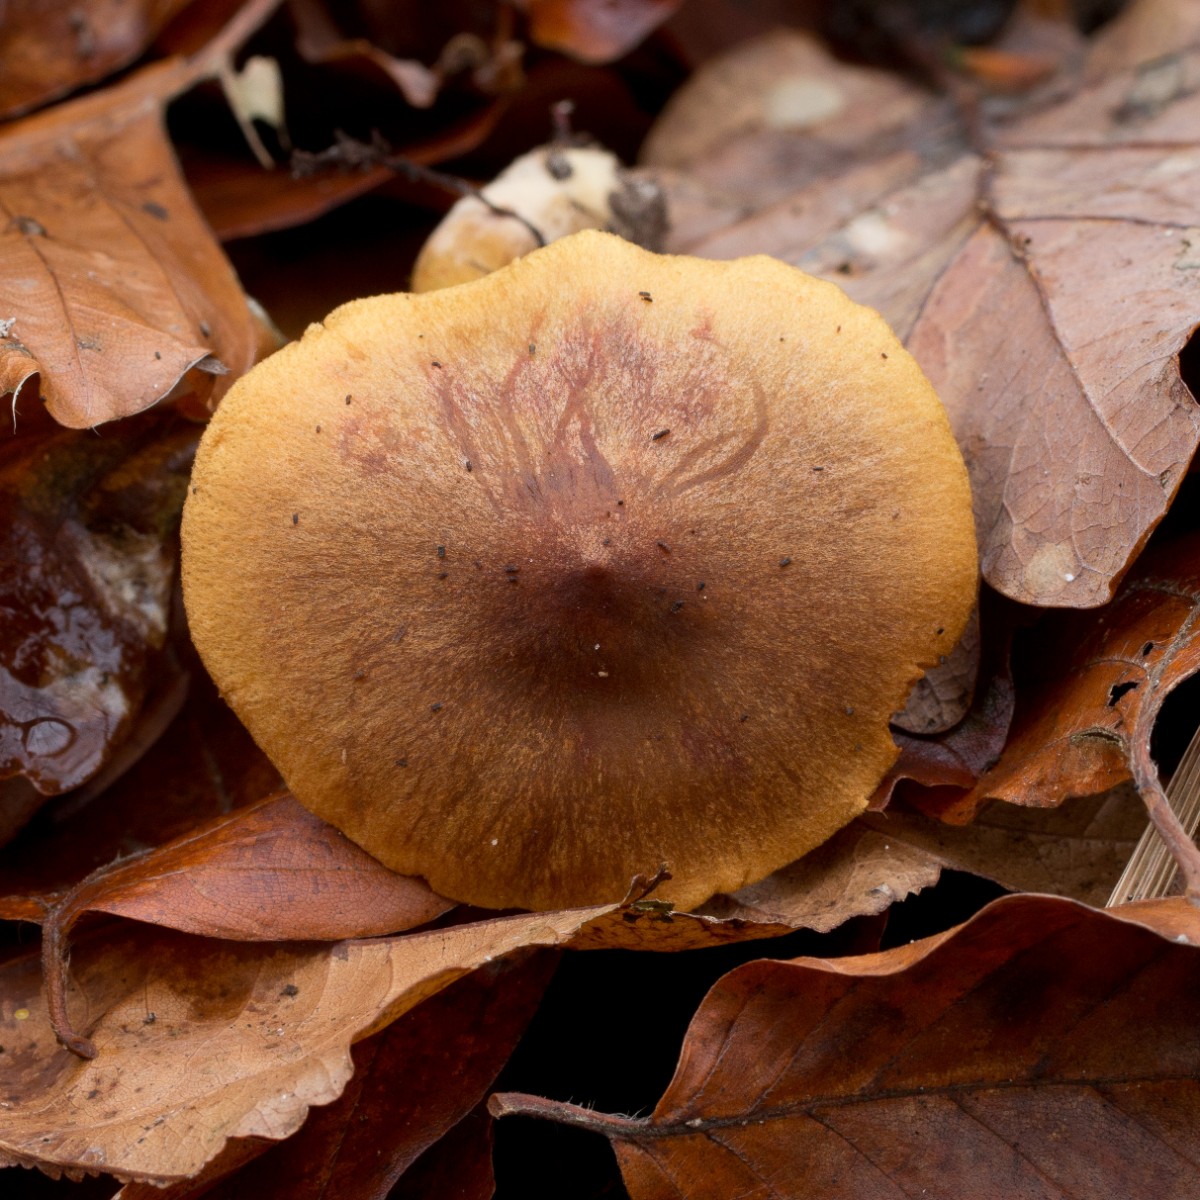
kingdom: Fungi
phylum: Basidiomycota
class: Agaricomycetes
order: Agaricales
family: Cortinariaceae
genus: Cortinarius
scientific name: Cortinarius
